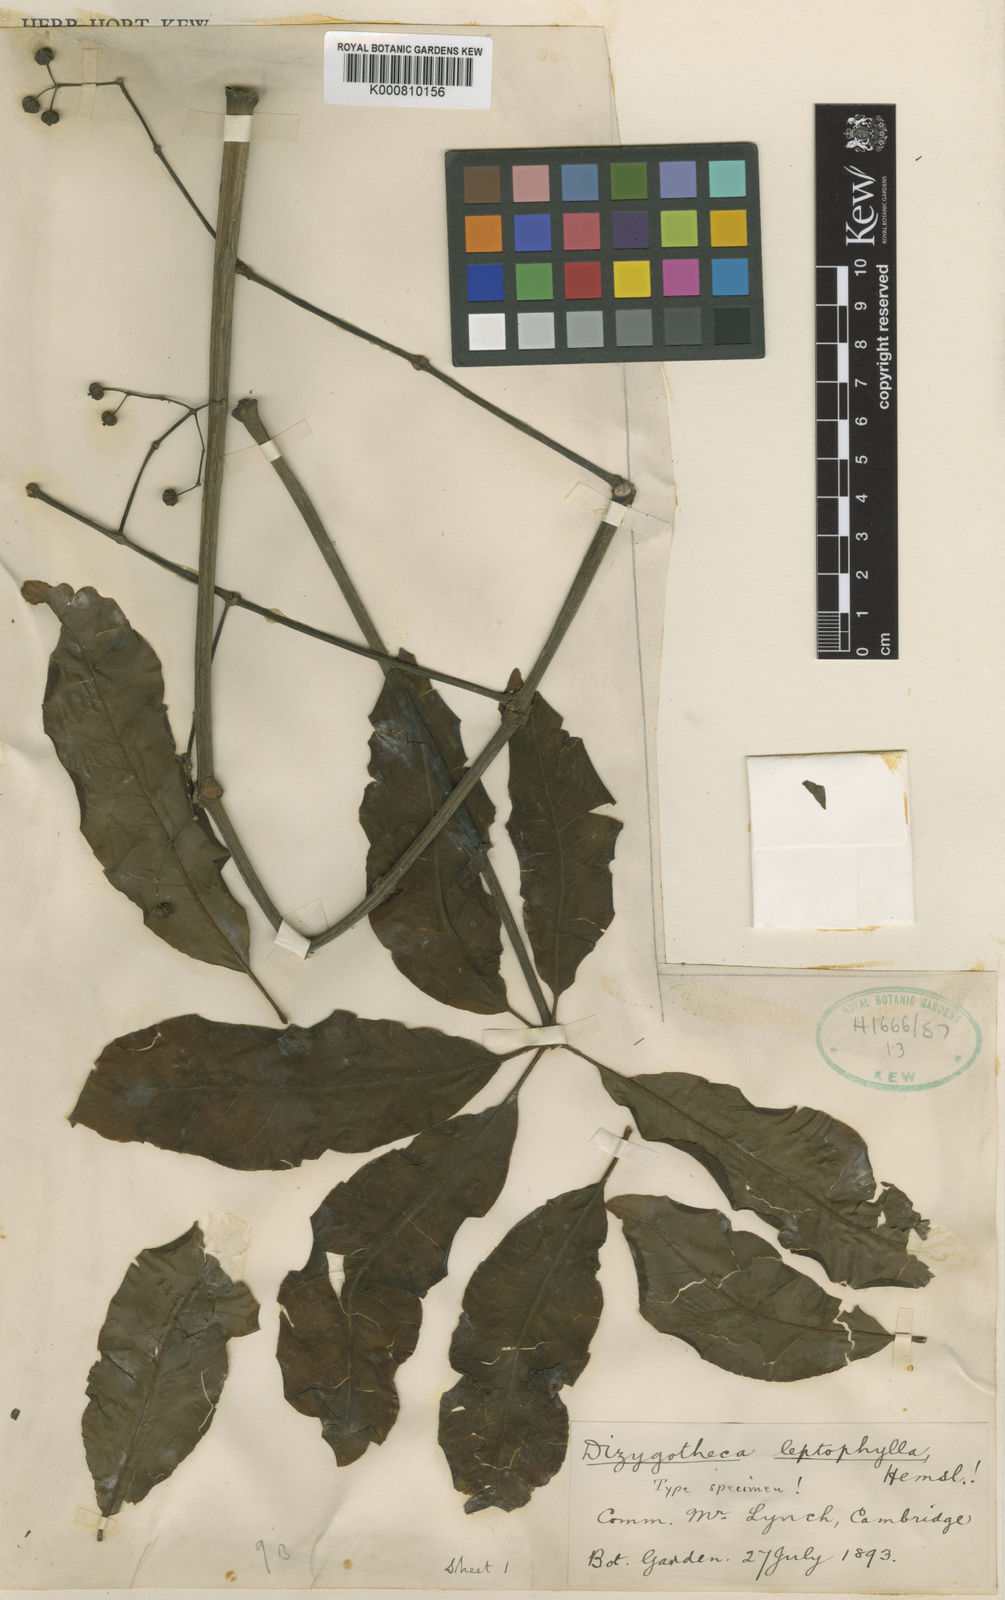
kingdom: Plantae
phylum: Tracheophyta
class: Magnoliopsida
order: Apiales
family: Araliaceae
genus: Plerandra
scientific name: Plerandra leptophylla
